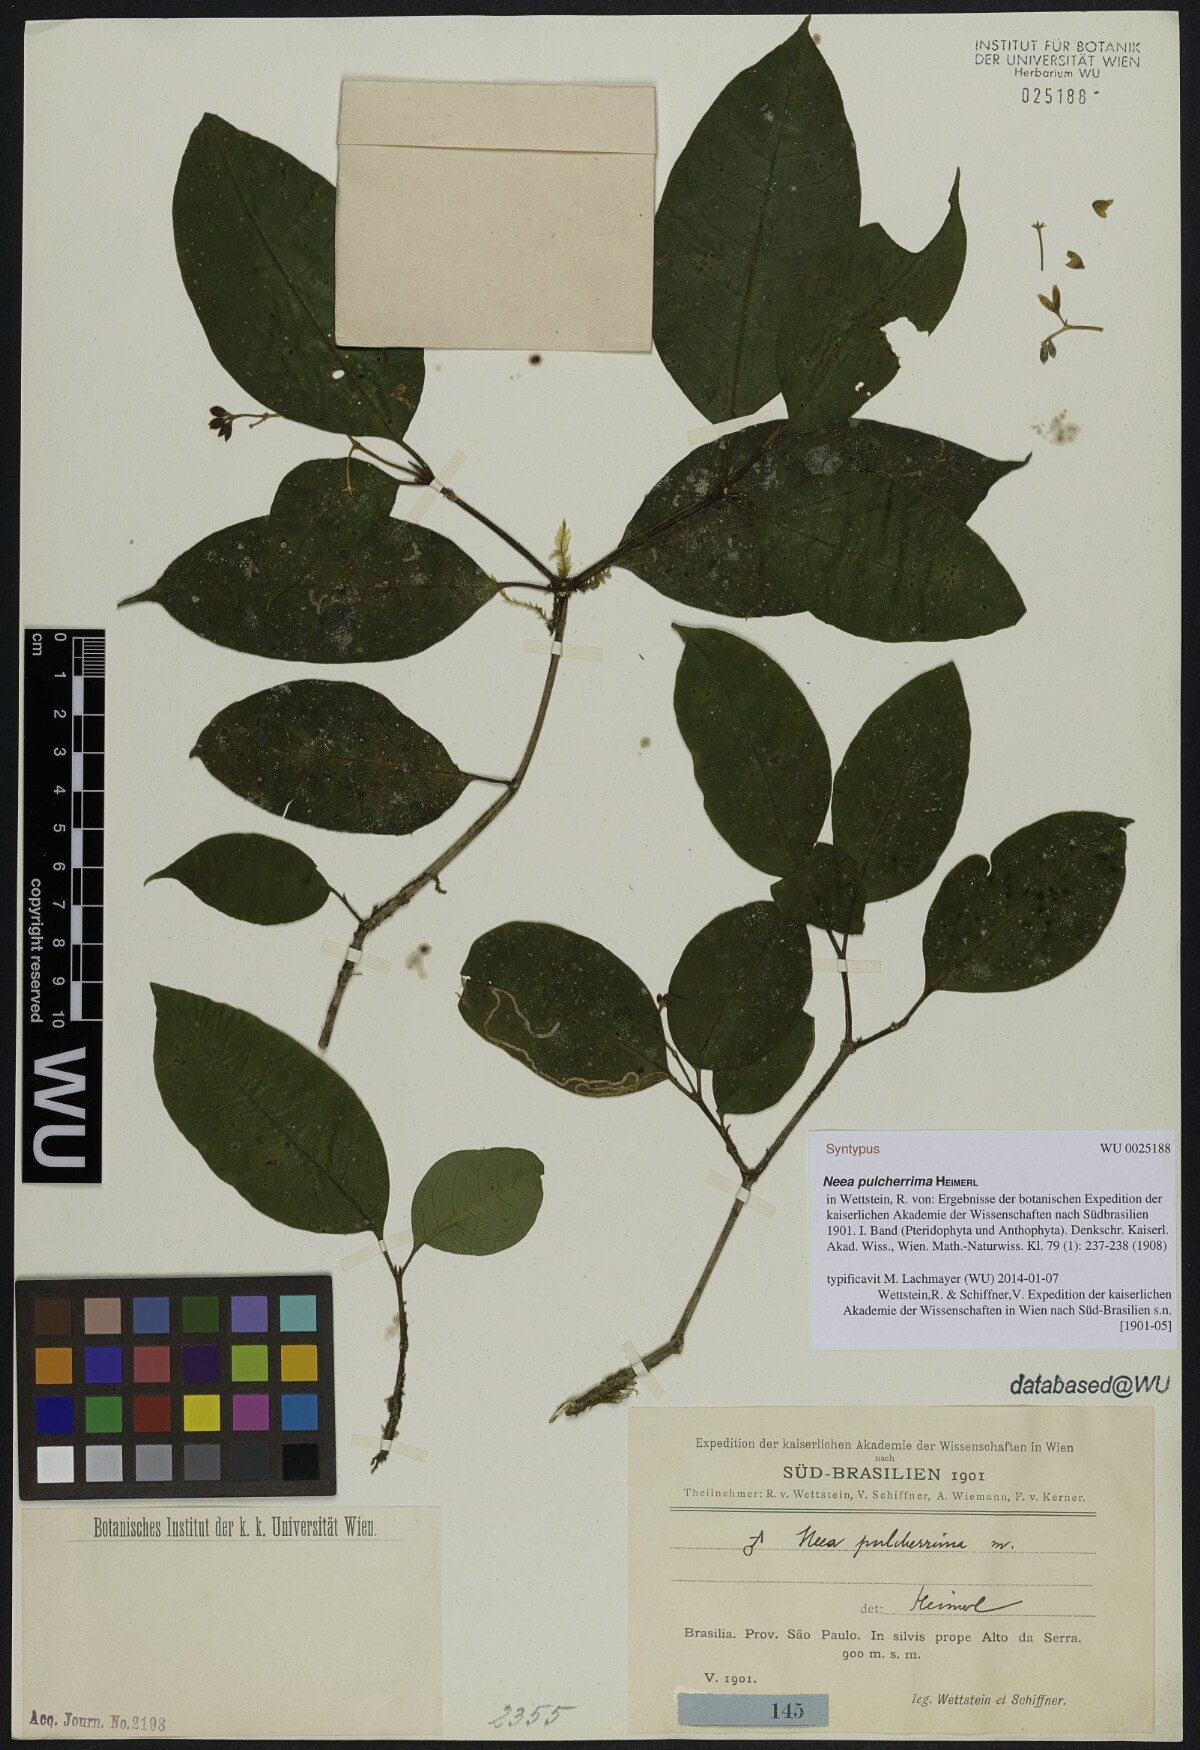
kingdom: Plantae
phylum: Tracheophyta
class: Magnoliopsida
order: Caryophyllales
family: Nyctaginaceae
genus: Neea
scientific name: Neea pulcherrima
